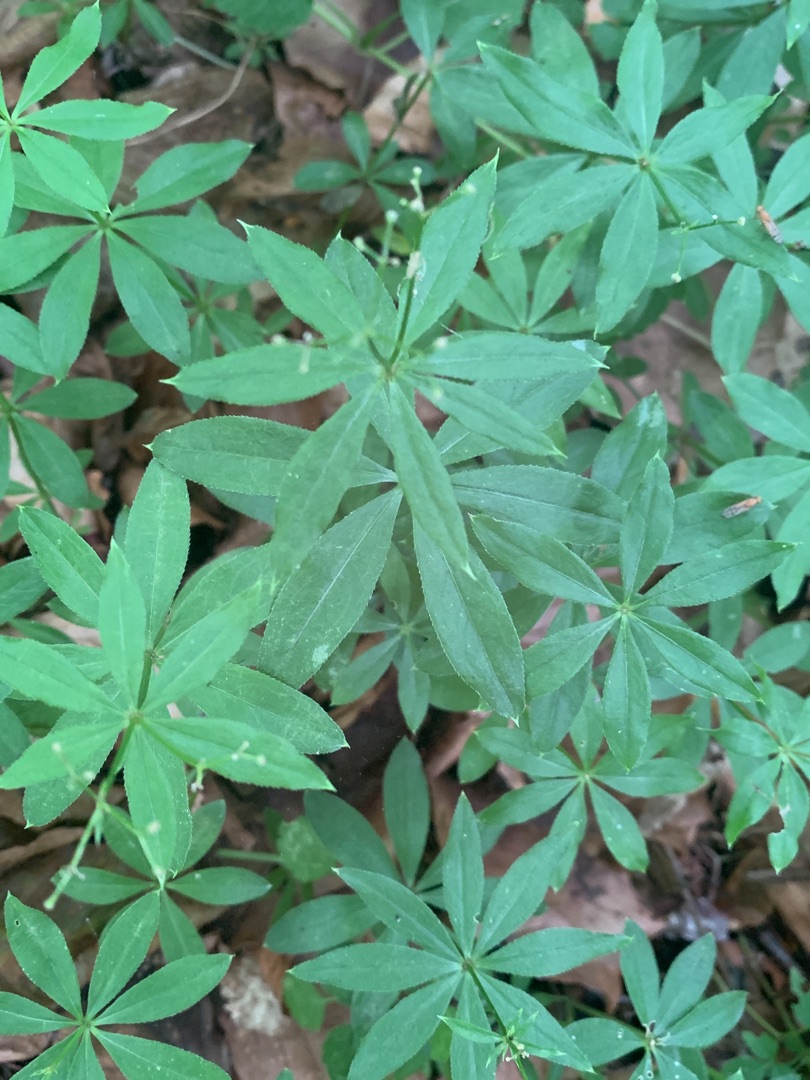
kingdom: Plantae
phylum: Tracheophyta
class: Magnoliopsida
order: Gentianales
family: Rubiaceae
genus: Galium
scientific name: Galium odoratum
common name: Skovmærke
